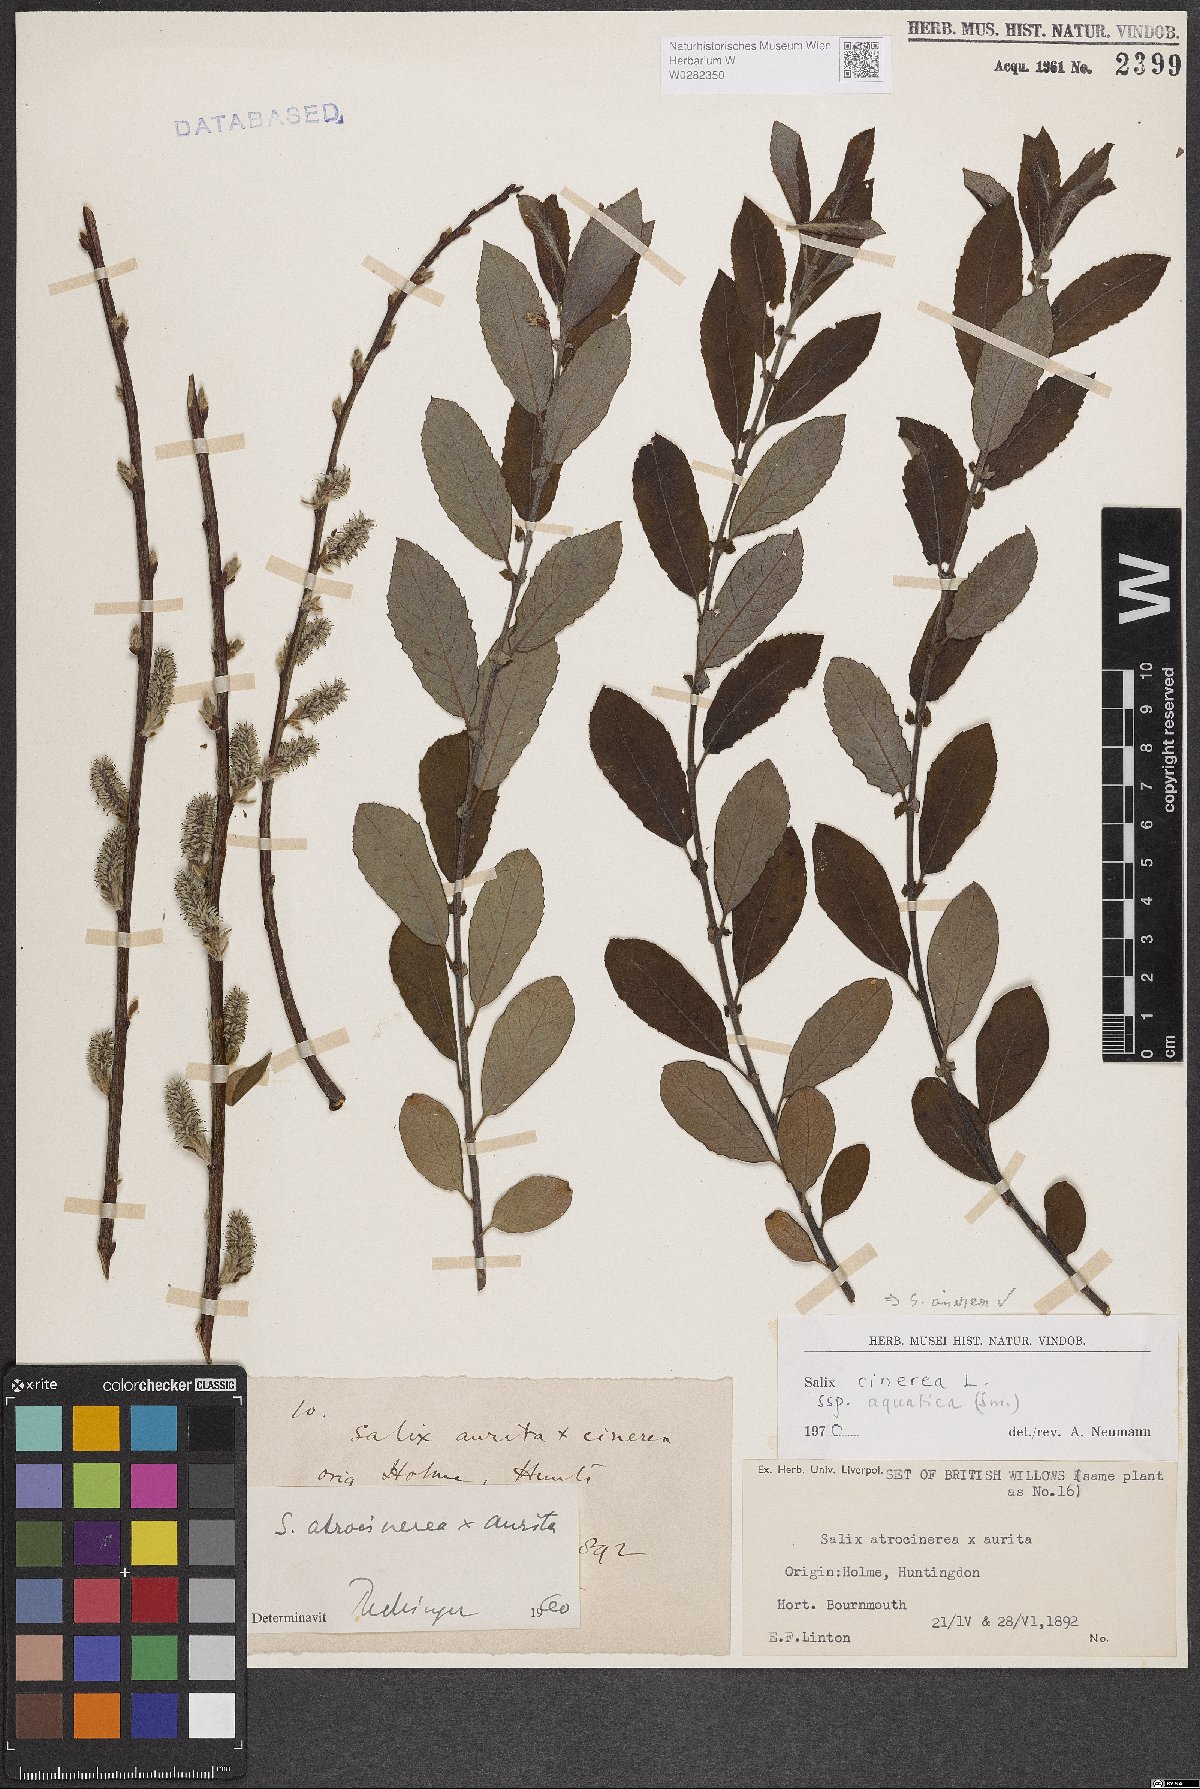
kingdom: Plantae
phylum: Tracheophyta
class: Magnoliopsida
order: Malpighiales
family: Salicaceae
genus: Salix
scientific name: Salix cinerea
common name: Common sallow
